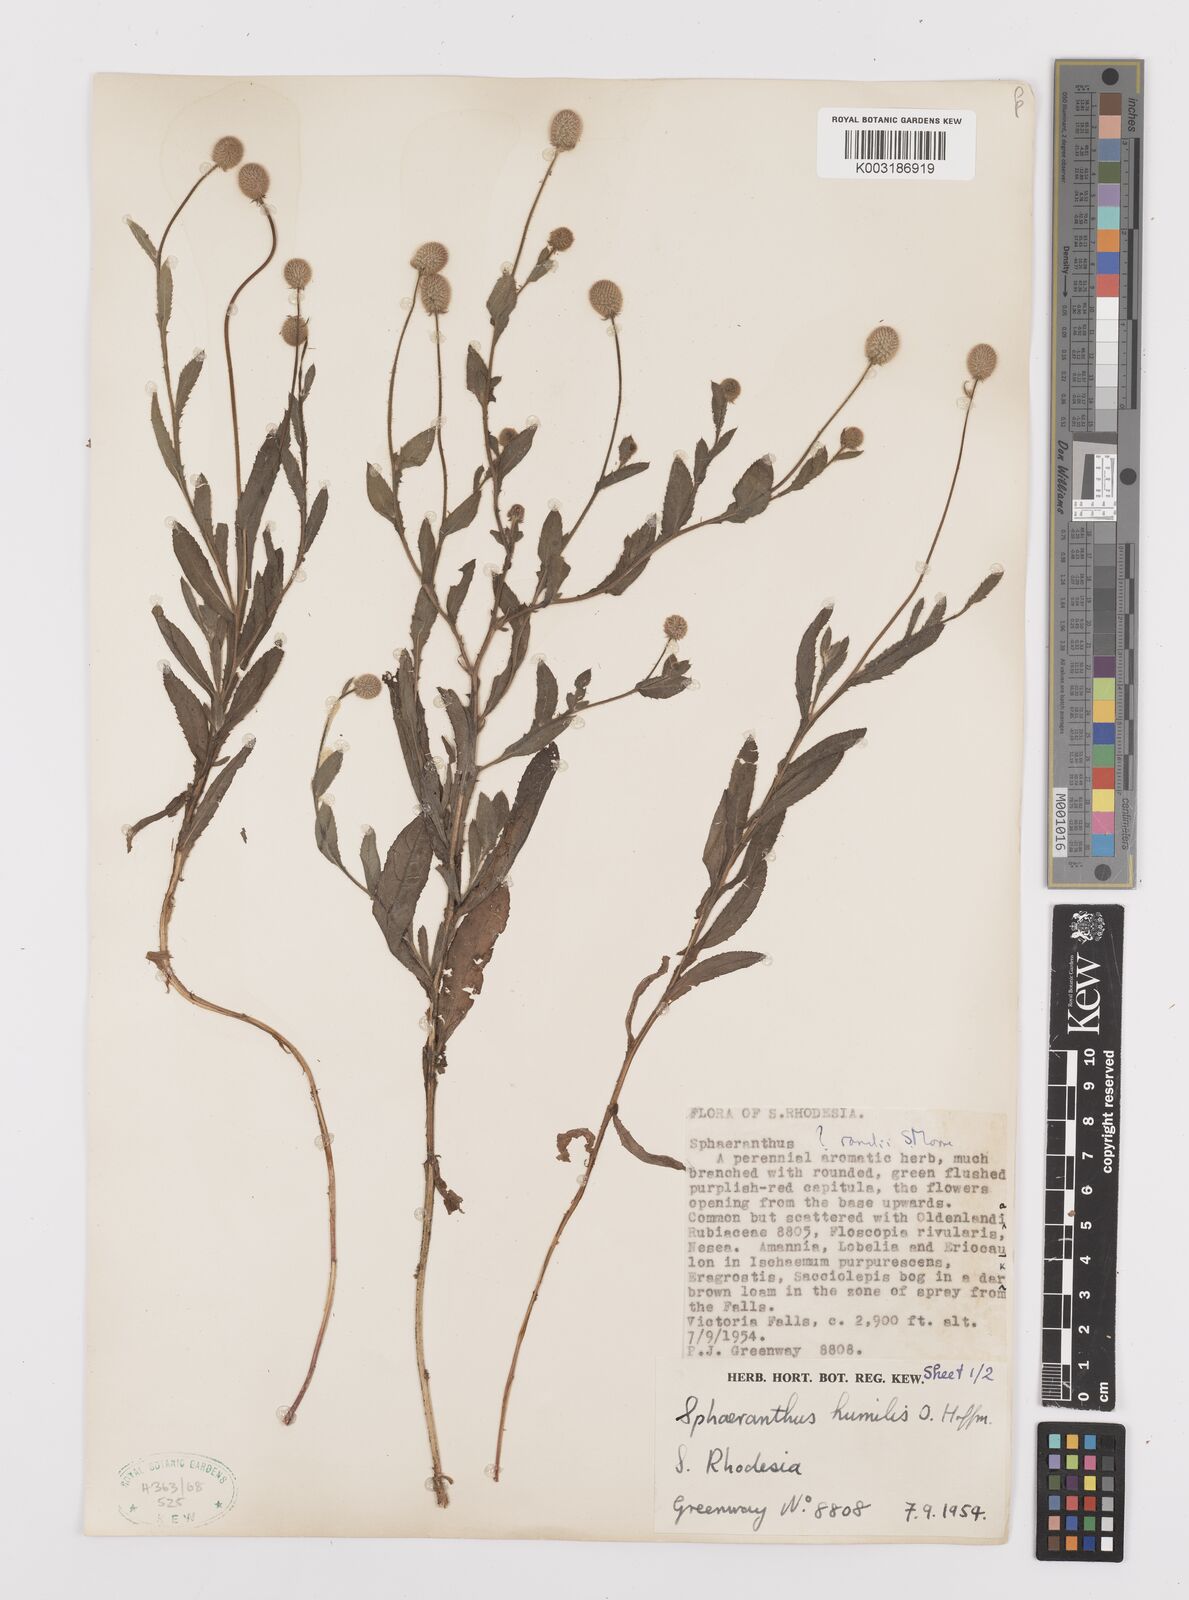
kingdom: Plantae
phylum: Tracheophyta
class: Magnoliopsida
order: Asterales
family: Asteraceae
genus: Sphaeranthus
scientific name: Sphaeranthus flexuosus
